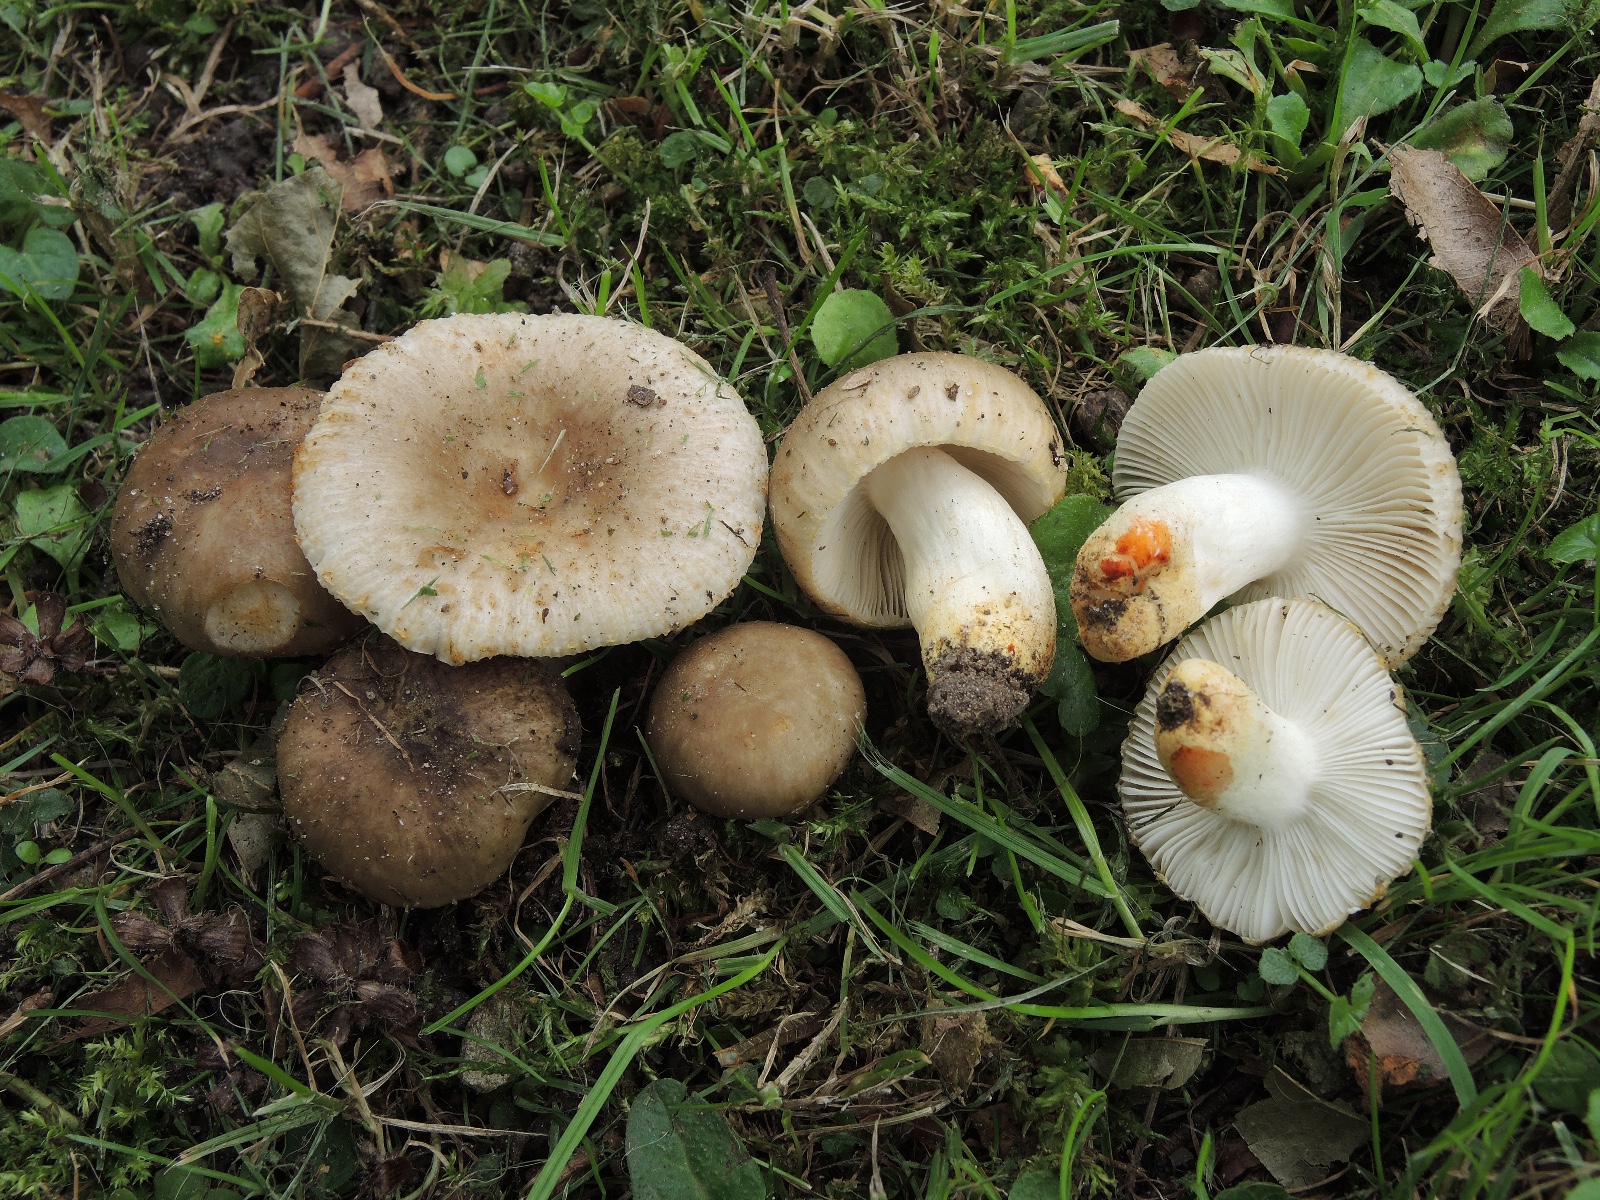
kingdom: Fungi
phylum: Basidiomycota
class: Agaricomycetes
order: Russulales
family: Russulaceae
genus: Russula
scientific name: Russula insignis
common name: gulfodet kam-skørhat
